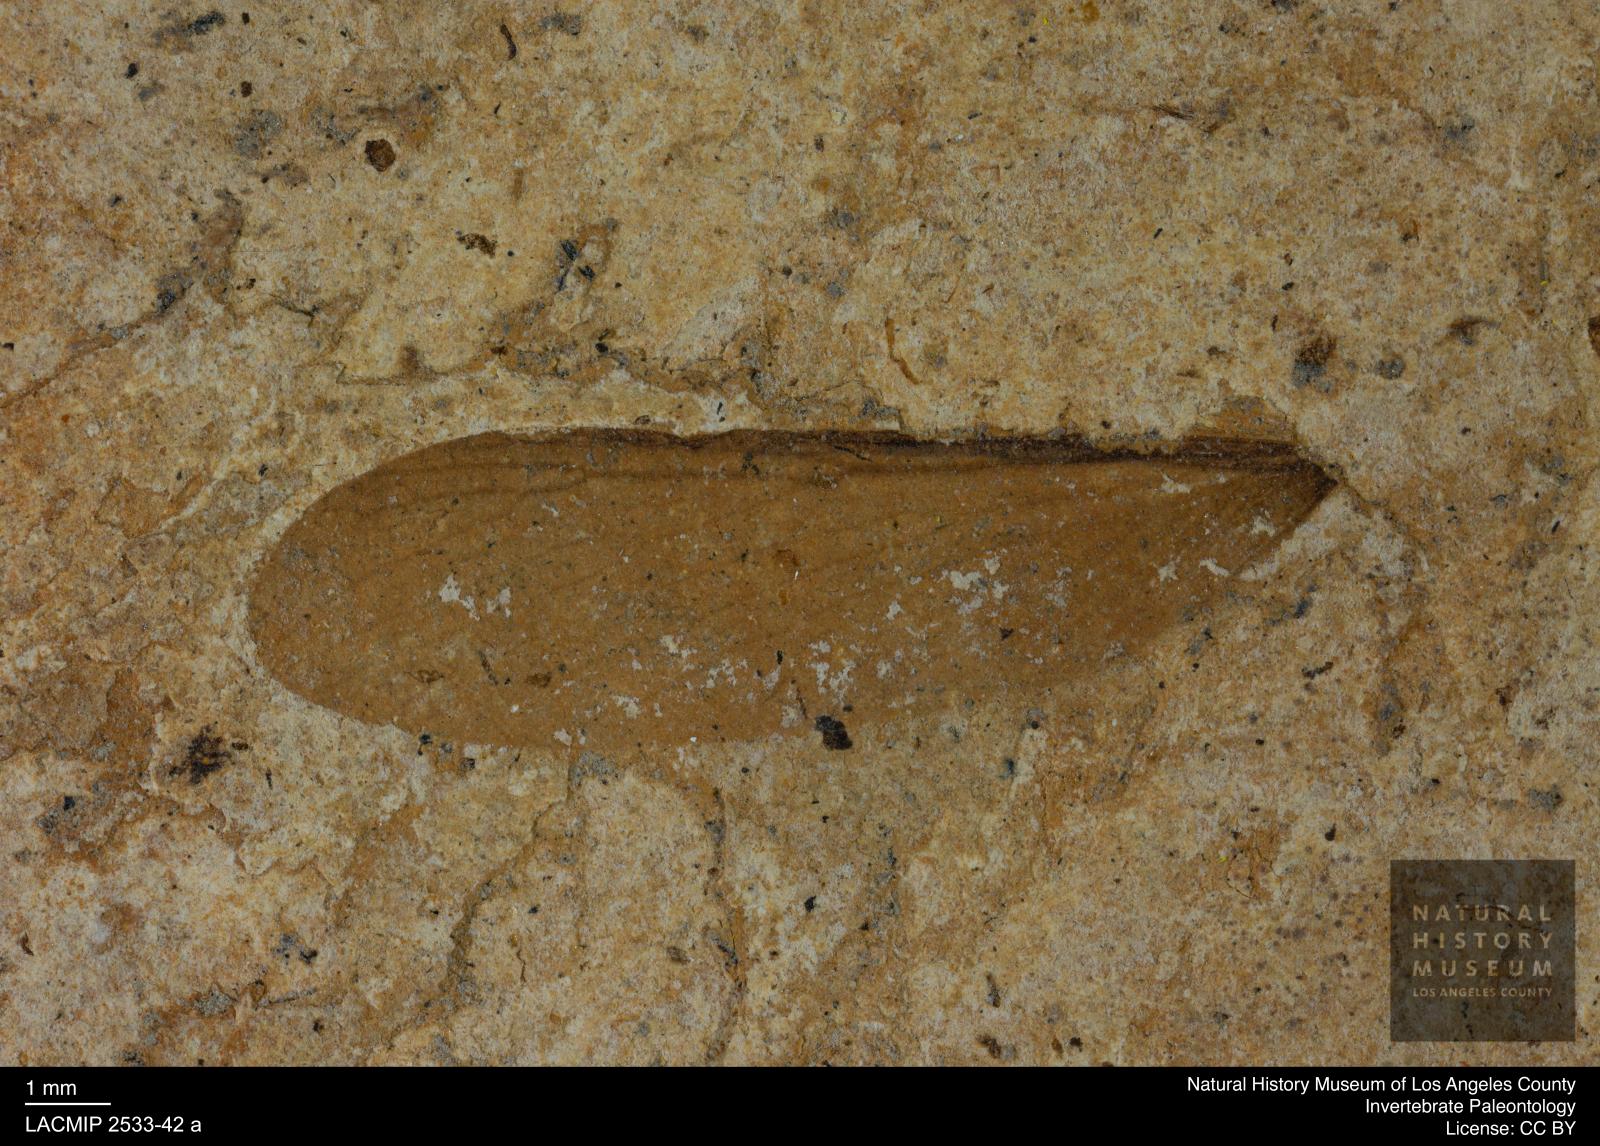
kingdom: Animalia
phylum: Arthropoda
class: Insecta
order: Blattodea
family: Hodotermitidae
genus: Ulmeriella
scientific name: Ulmeriella bauckhorni
